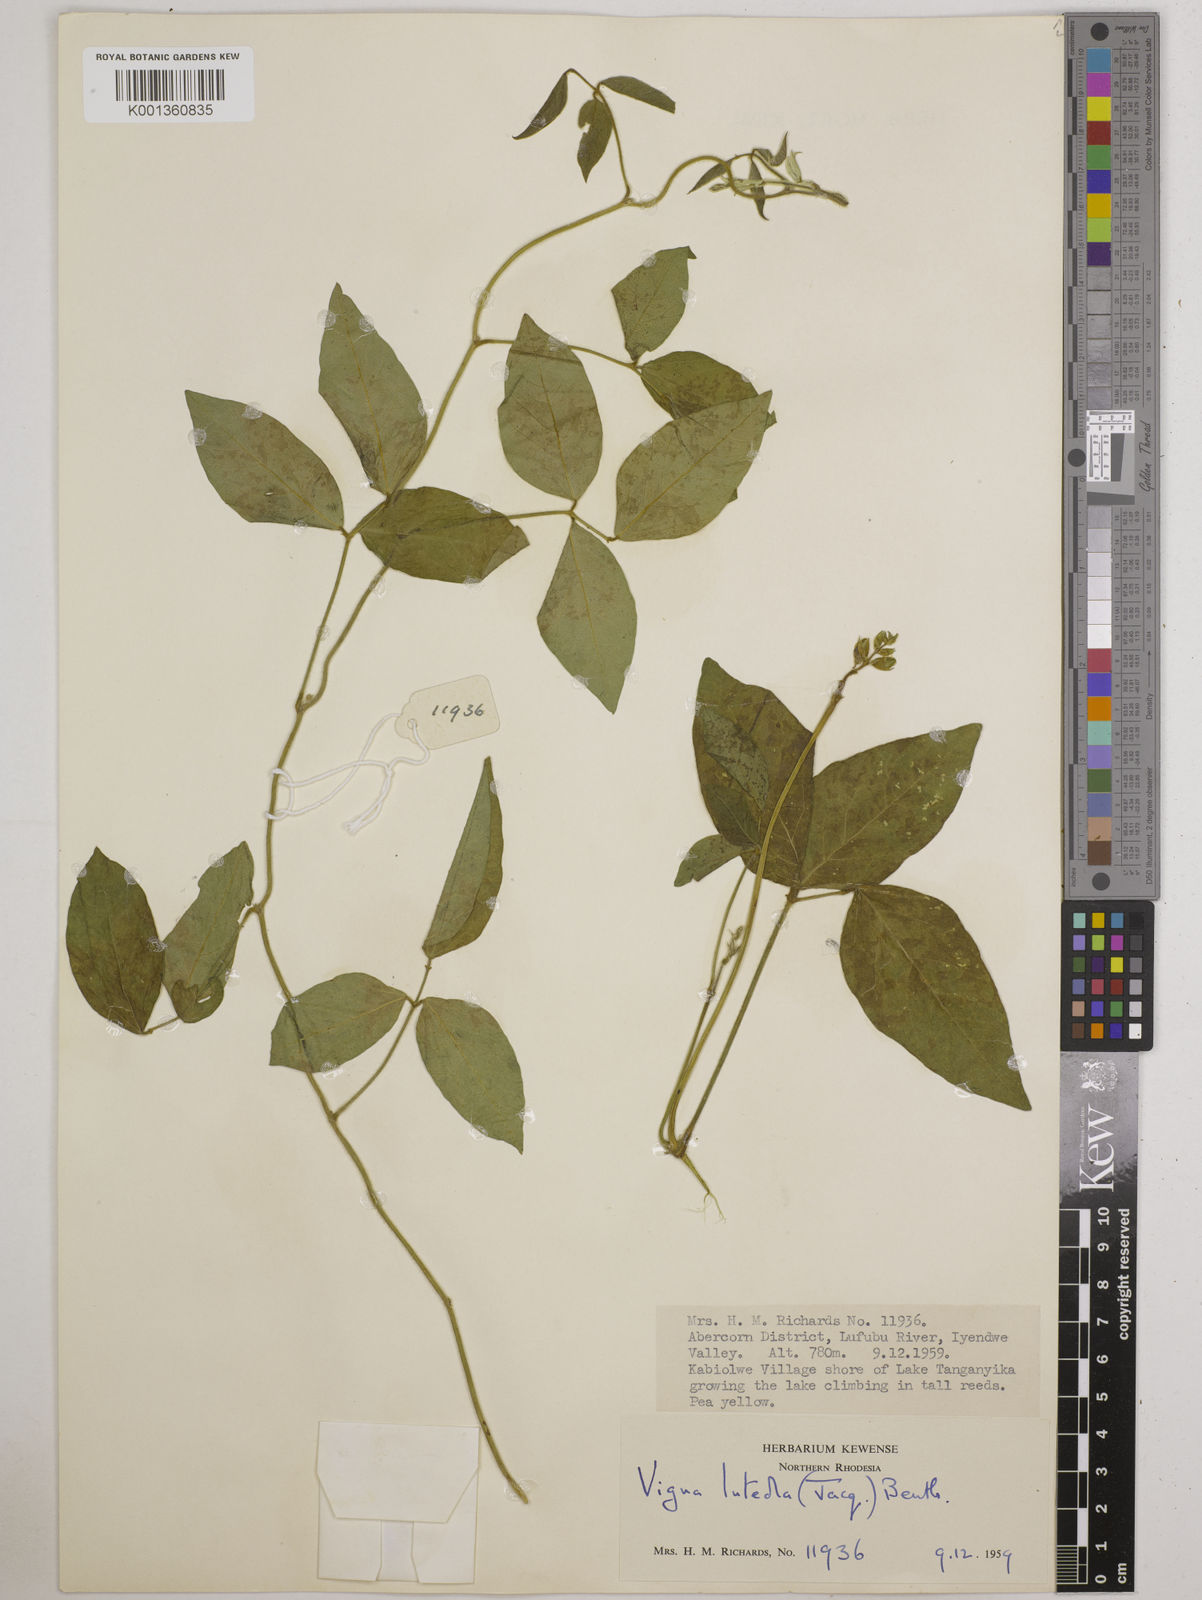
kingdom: Plantae
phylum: Tracheophyta
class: Magnoliopsida
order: Fabales
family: Fabaceae
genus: Vigna
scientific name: Vigna luteola
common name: Hairypod cowpea
